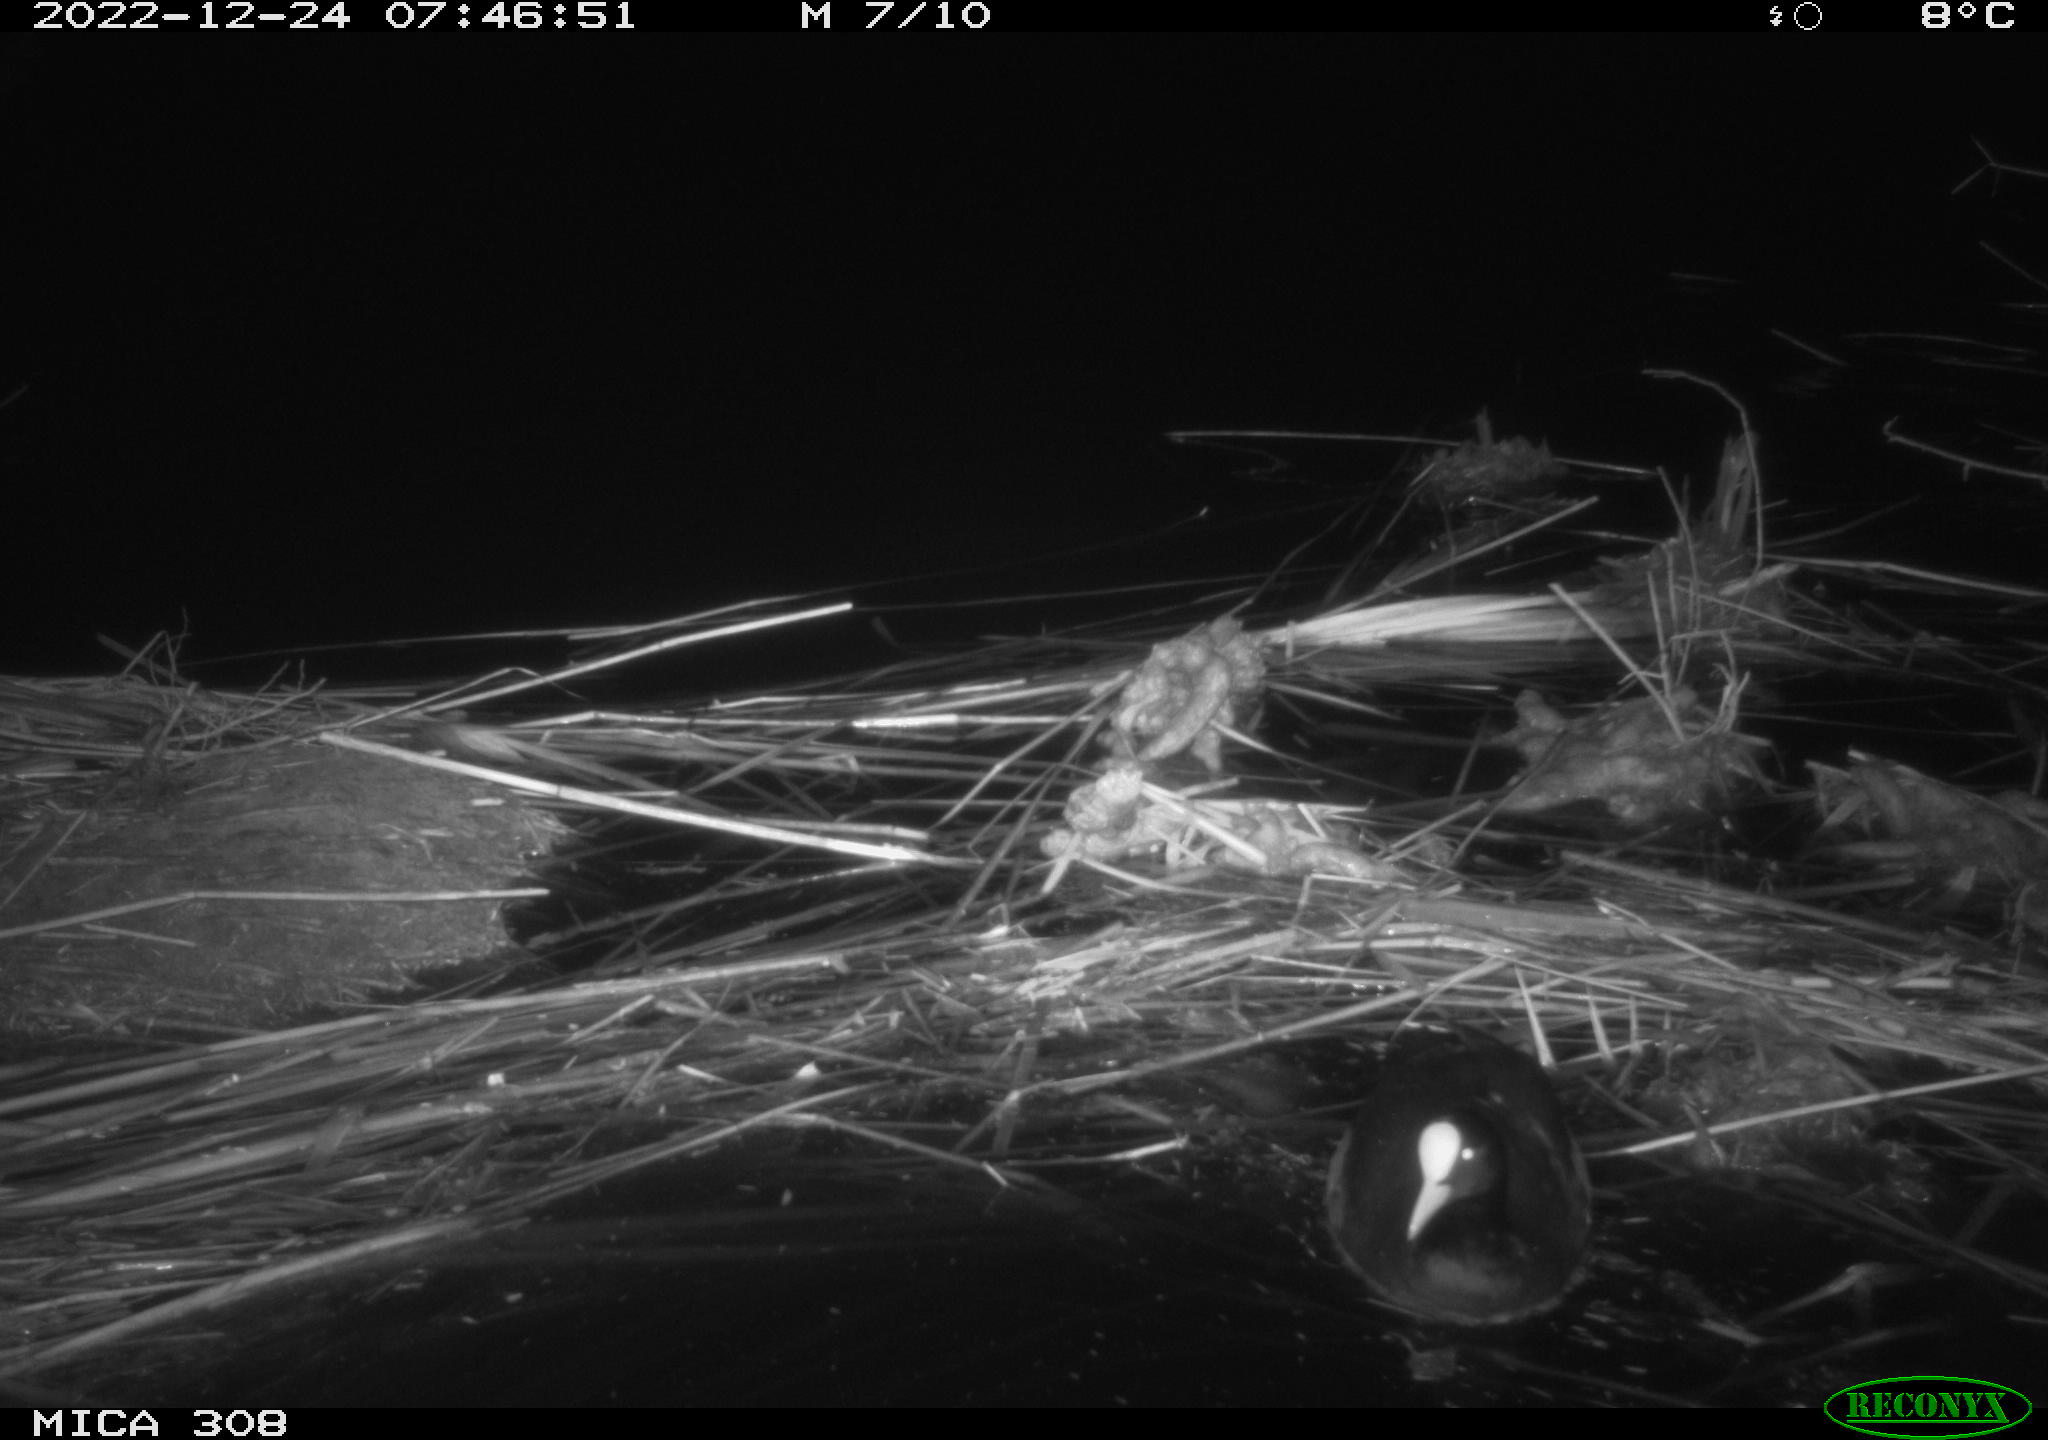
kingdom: Animalia
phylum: Chordata
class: Mammalia
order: Rodentia
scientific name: Rodentia
